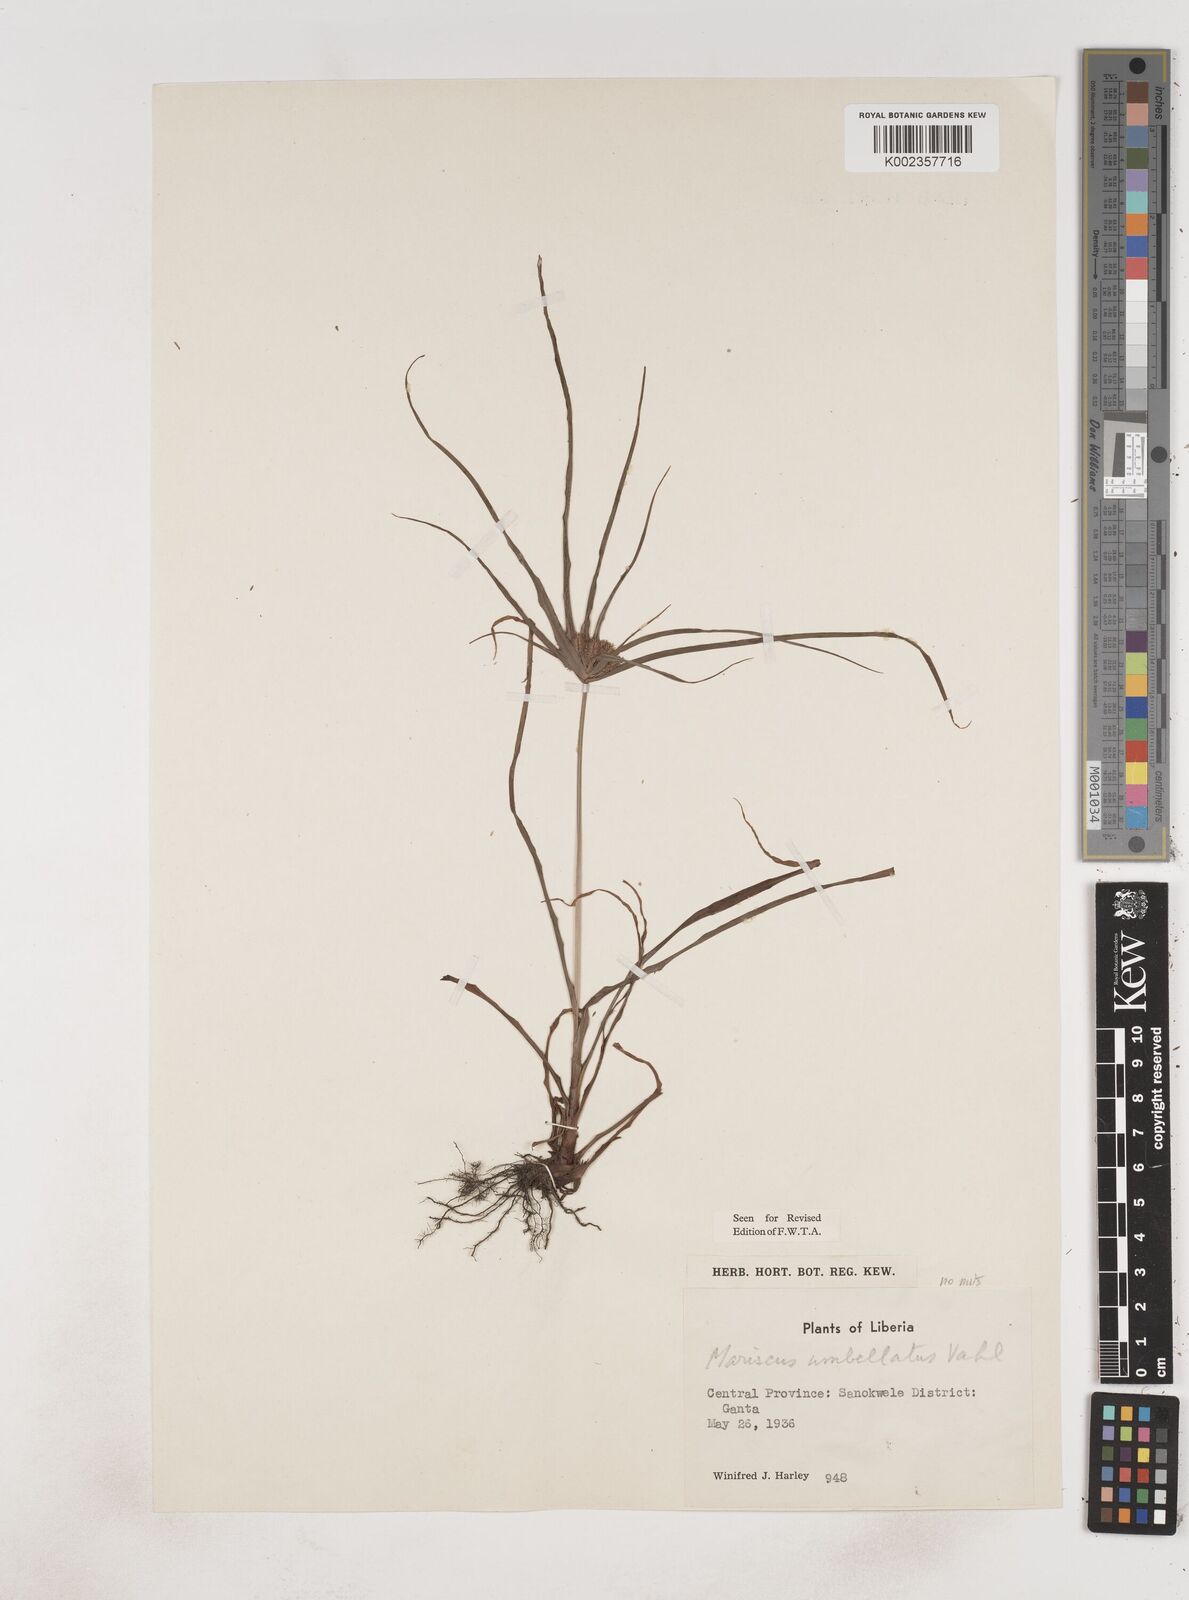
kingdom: Plantae
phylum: Tracheophyta
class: Liliopsida
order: Poales
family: Cyperaceae
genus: Cyperus
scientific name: Cyperus sublimis
